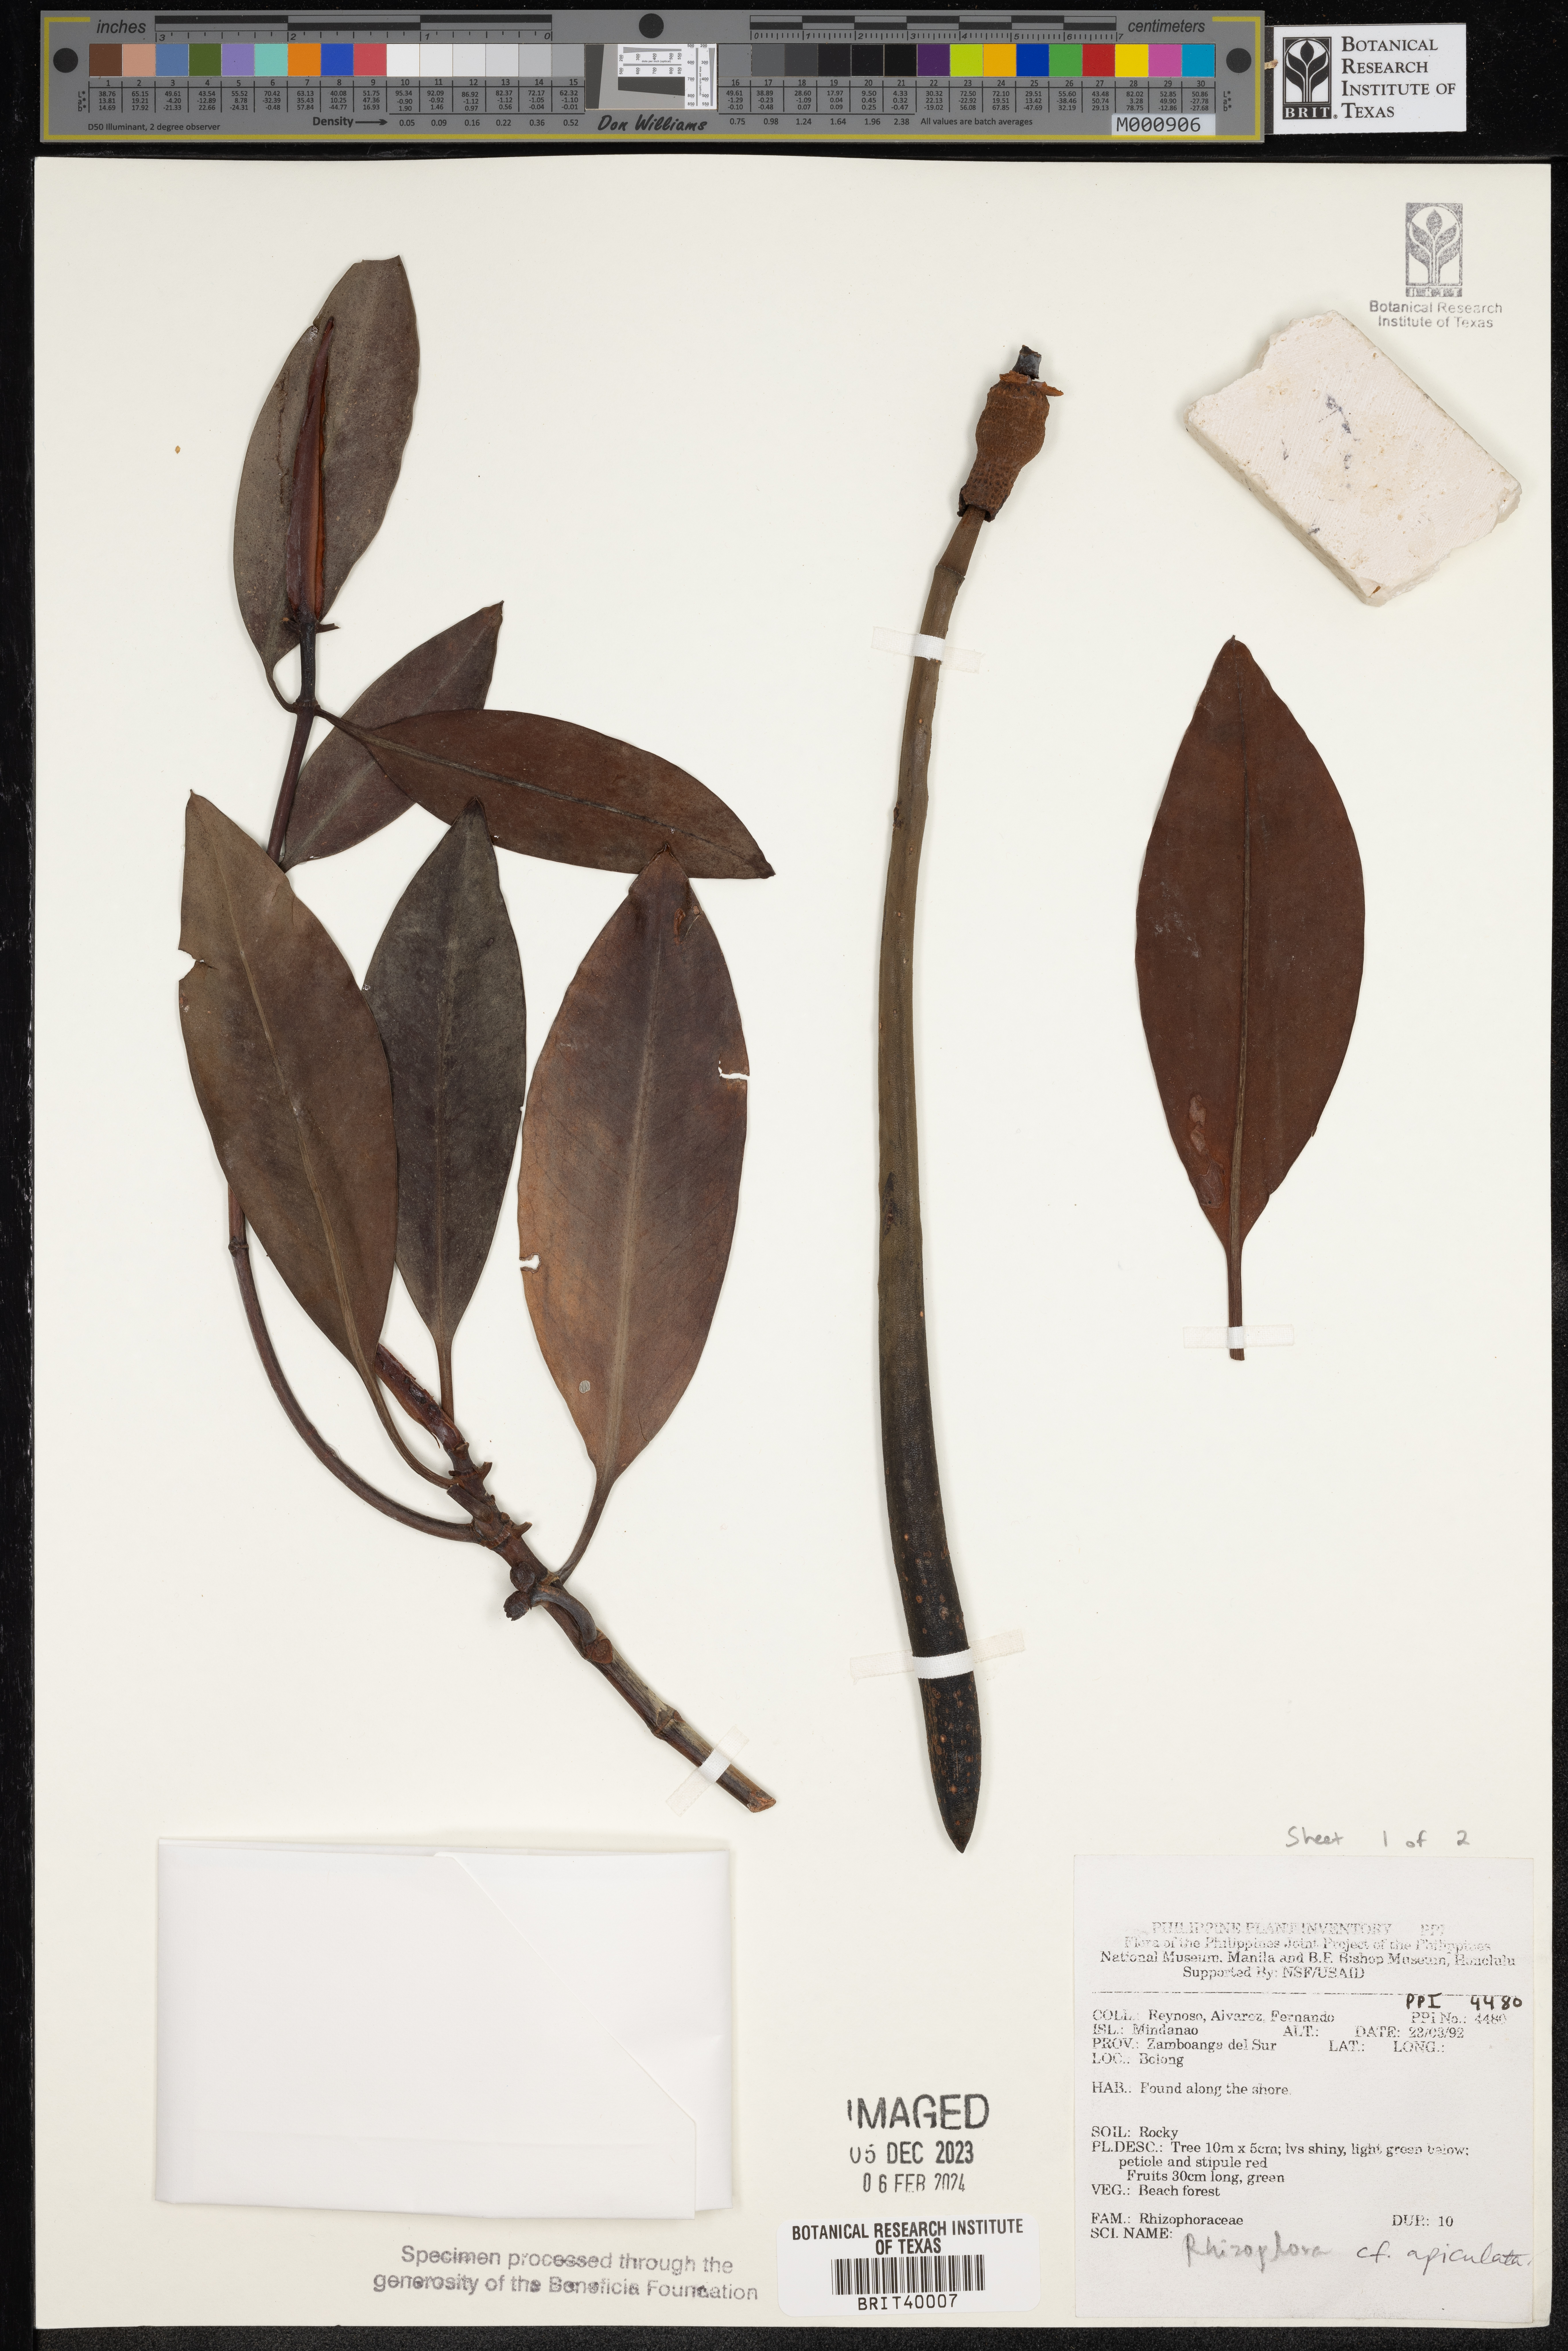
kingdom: Plantae
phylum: Tracheophyta
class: Magnoliopsida
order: Malpighiales
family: Rhizophoraceae
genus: Rhizophora
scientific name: Rhizophora apiculata
